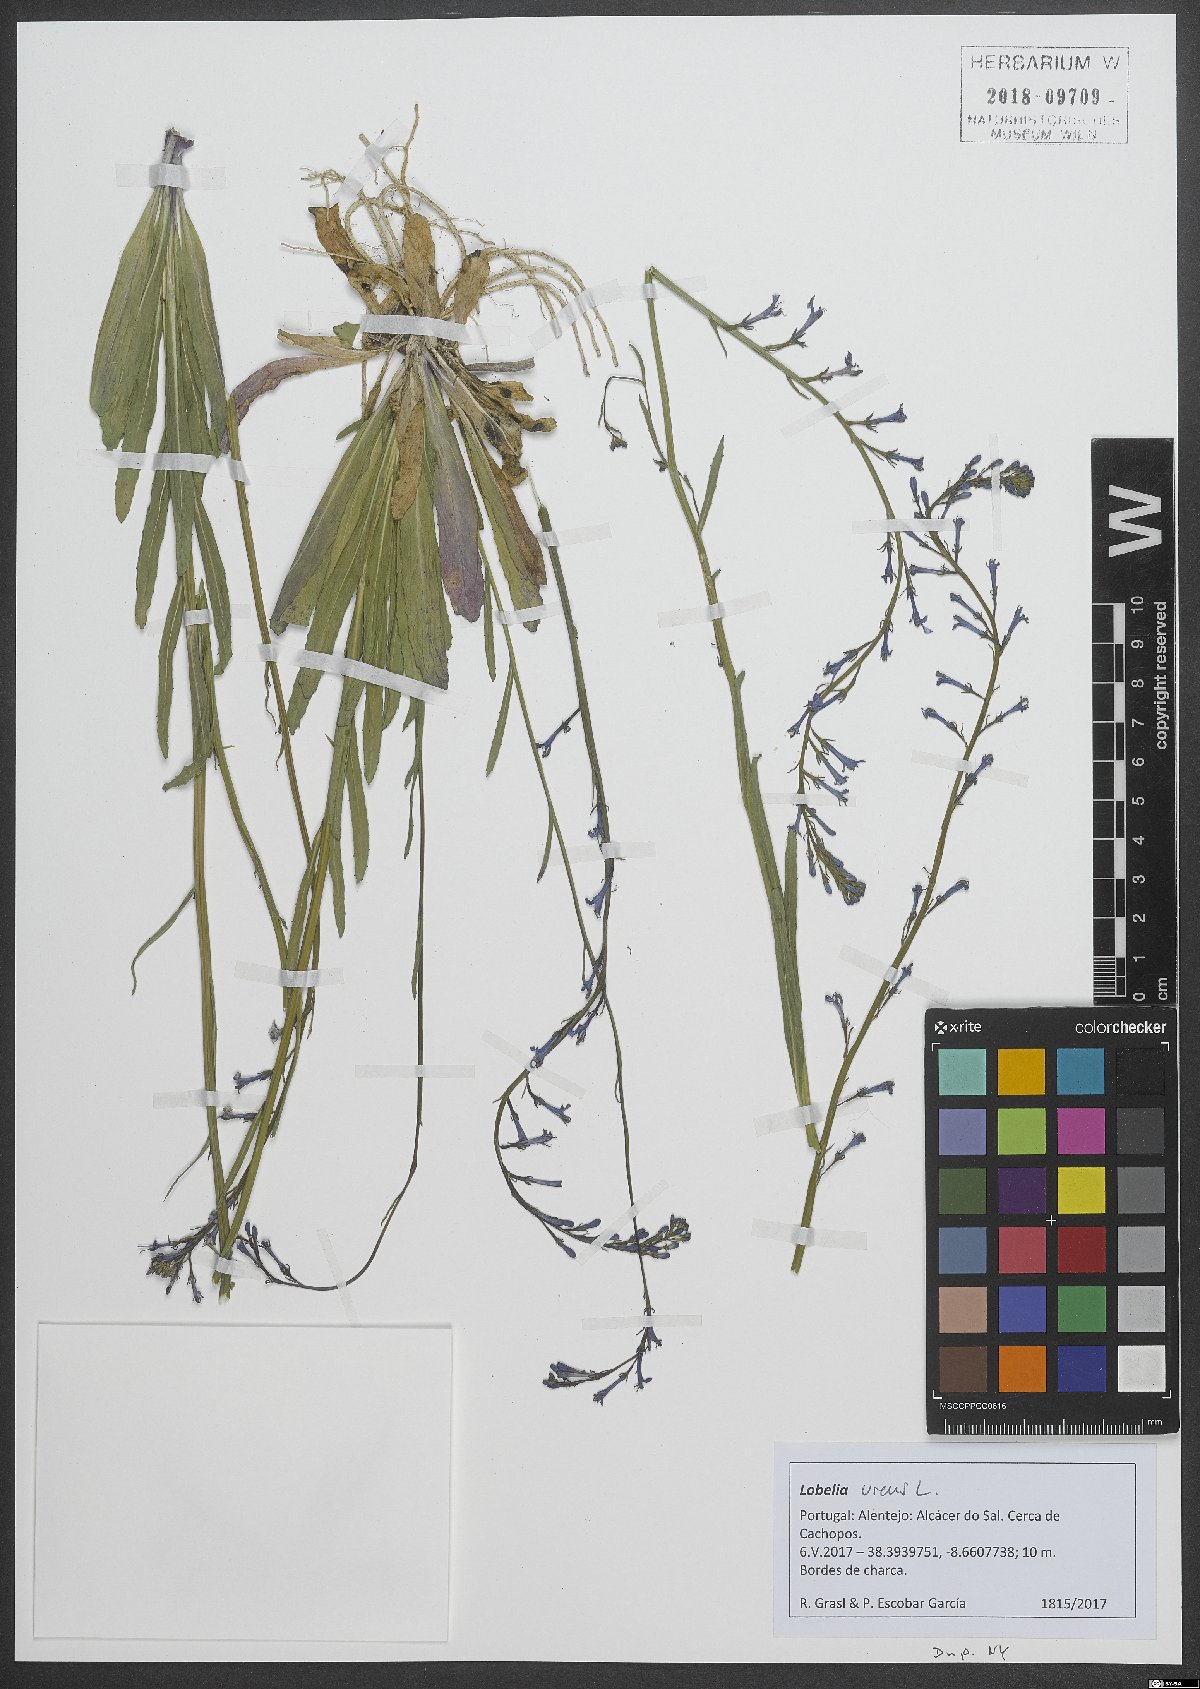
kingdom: Plantae
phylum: Tracheophyta
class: Magnoliopsida
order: Asterales
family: Campanulaceae
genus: Lobelia
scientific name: Lobelia urens
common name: Heath lobelia
